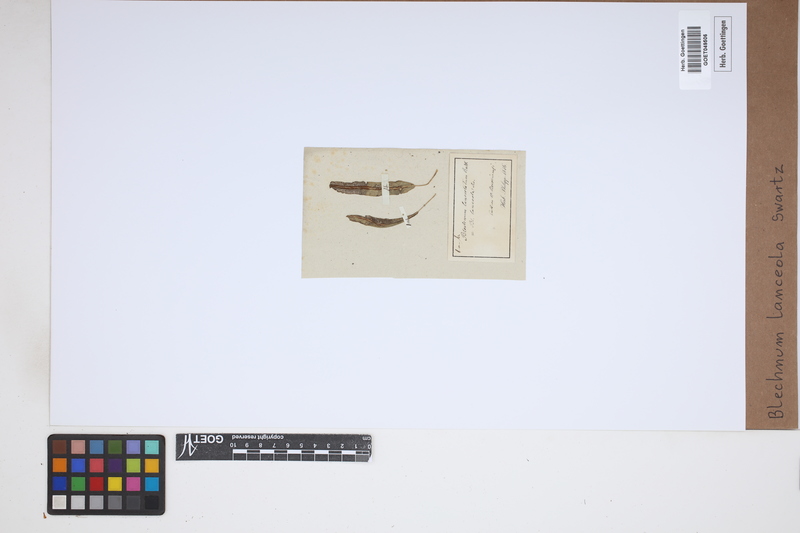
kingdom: Plantae
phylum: Tracheophyta
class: Polypodiopsida
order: Polypodiales
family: Blechnaceae
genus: Blechnum
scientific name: Blechnum lanceola
